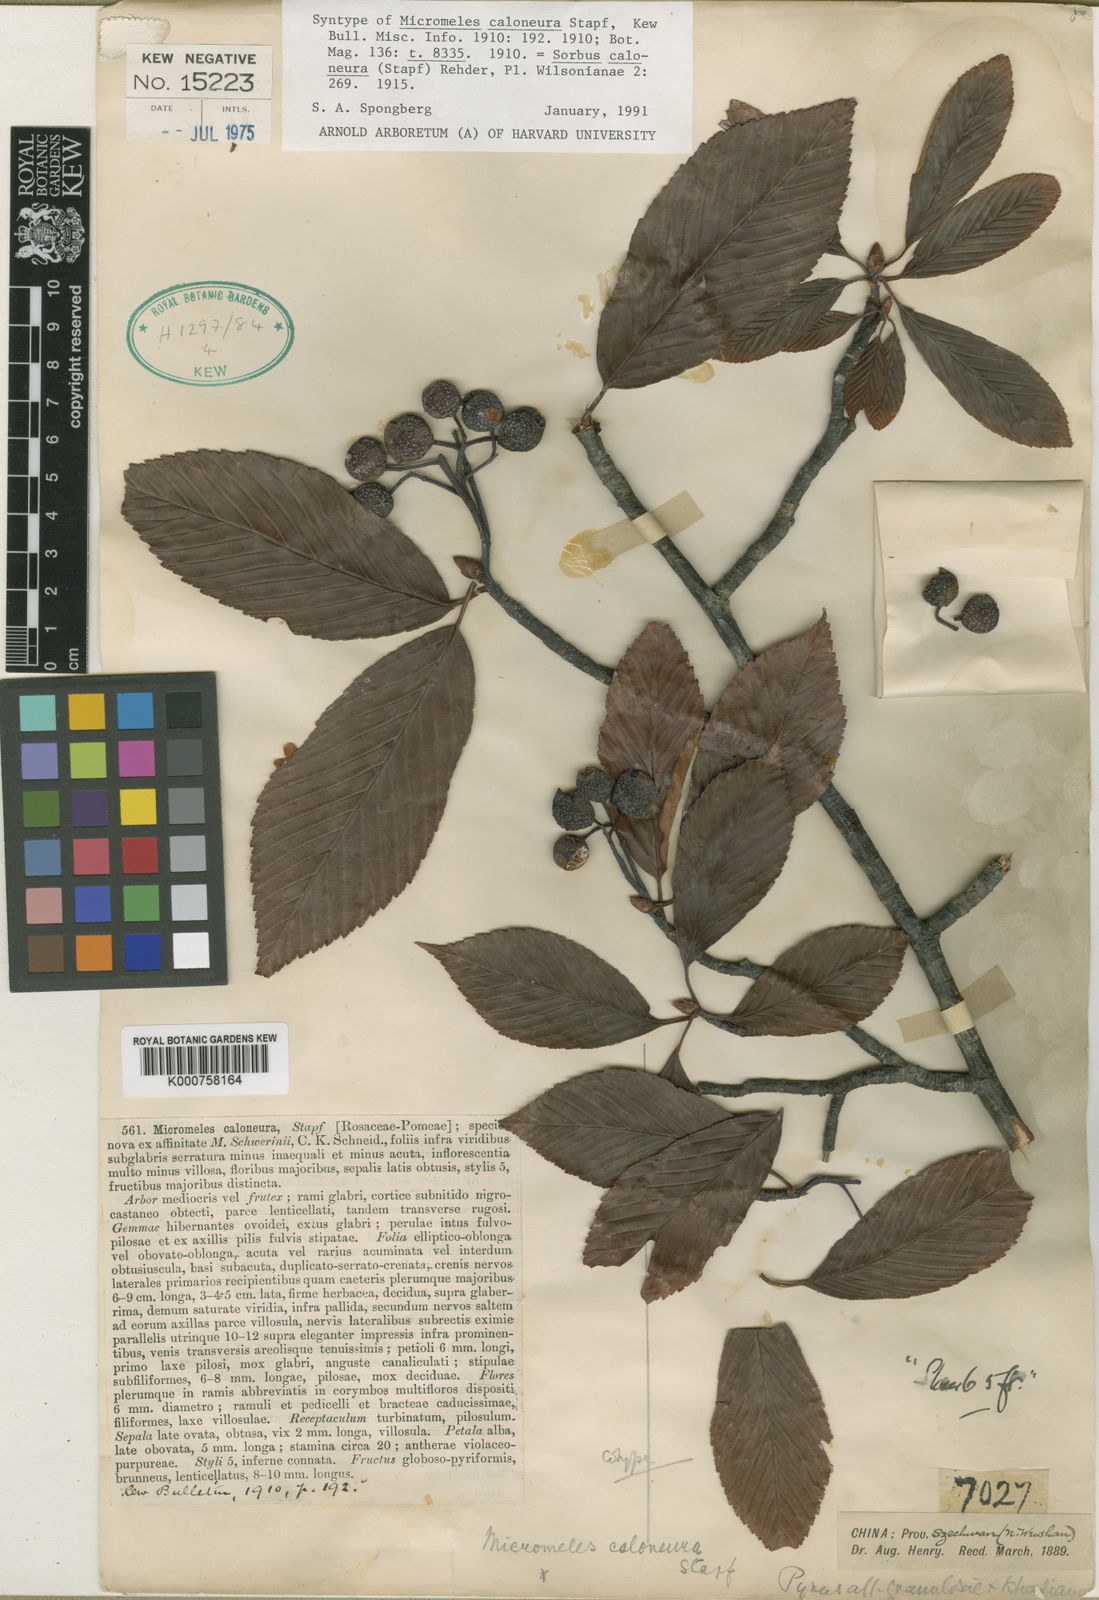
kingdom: Plantae
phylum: Tracheophyta
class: Magnoliopsida
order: Rosales
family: Rosaceae
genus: Sorbus
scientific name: Sorbus caloneura
